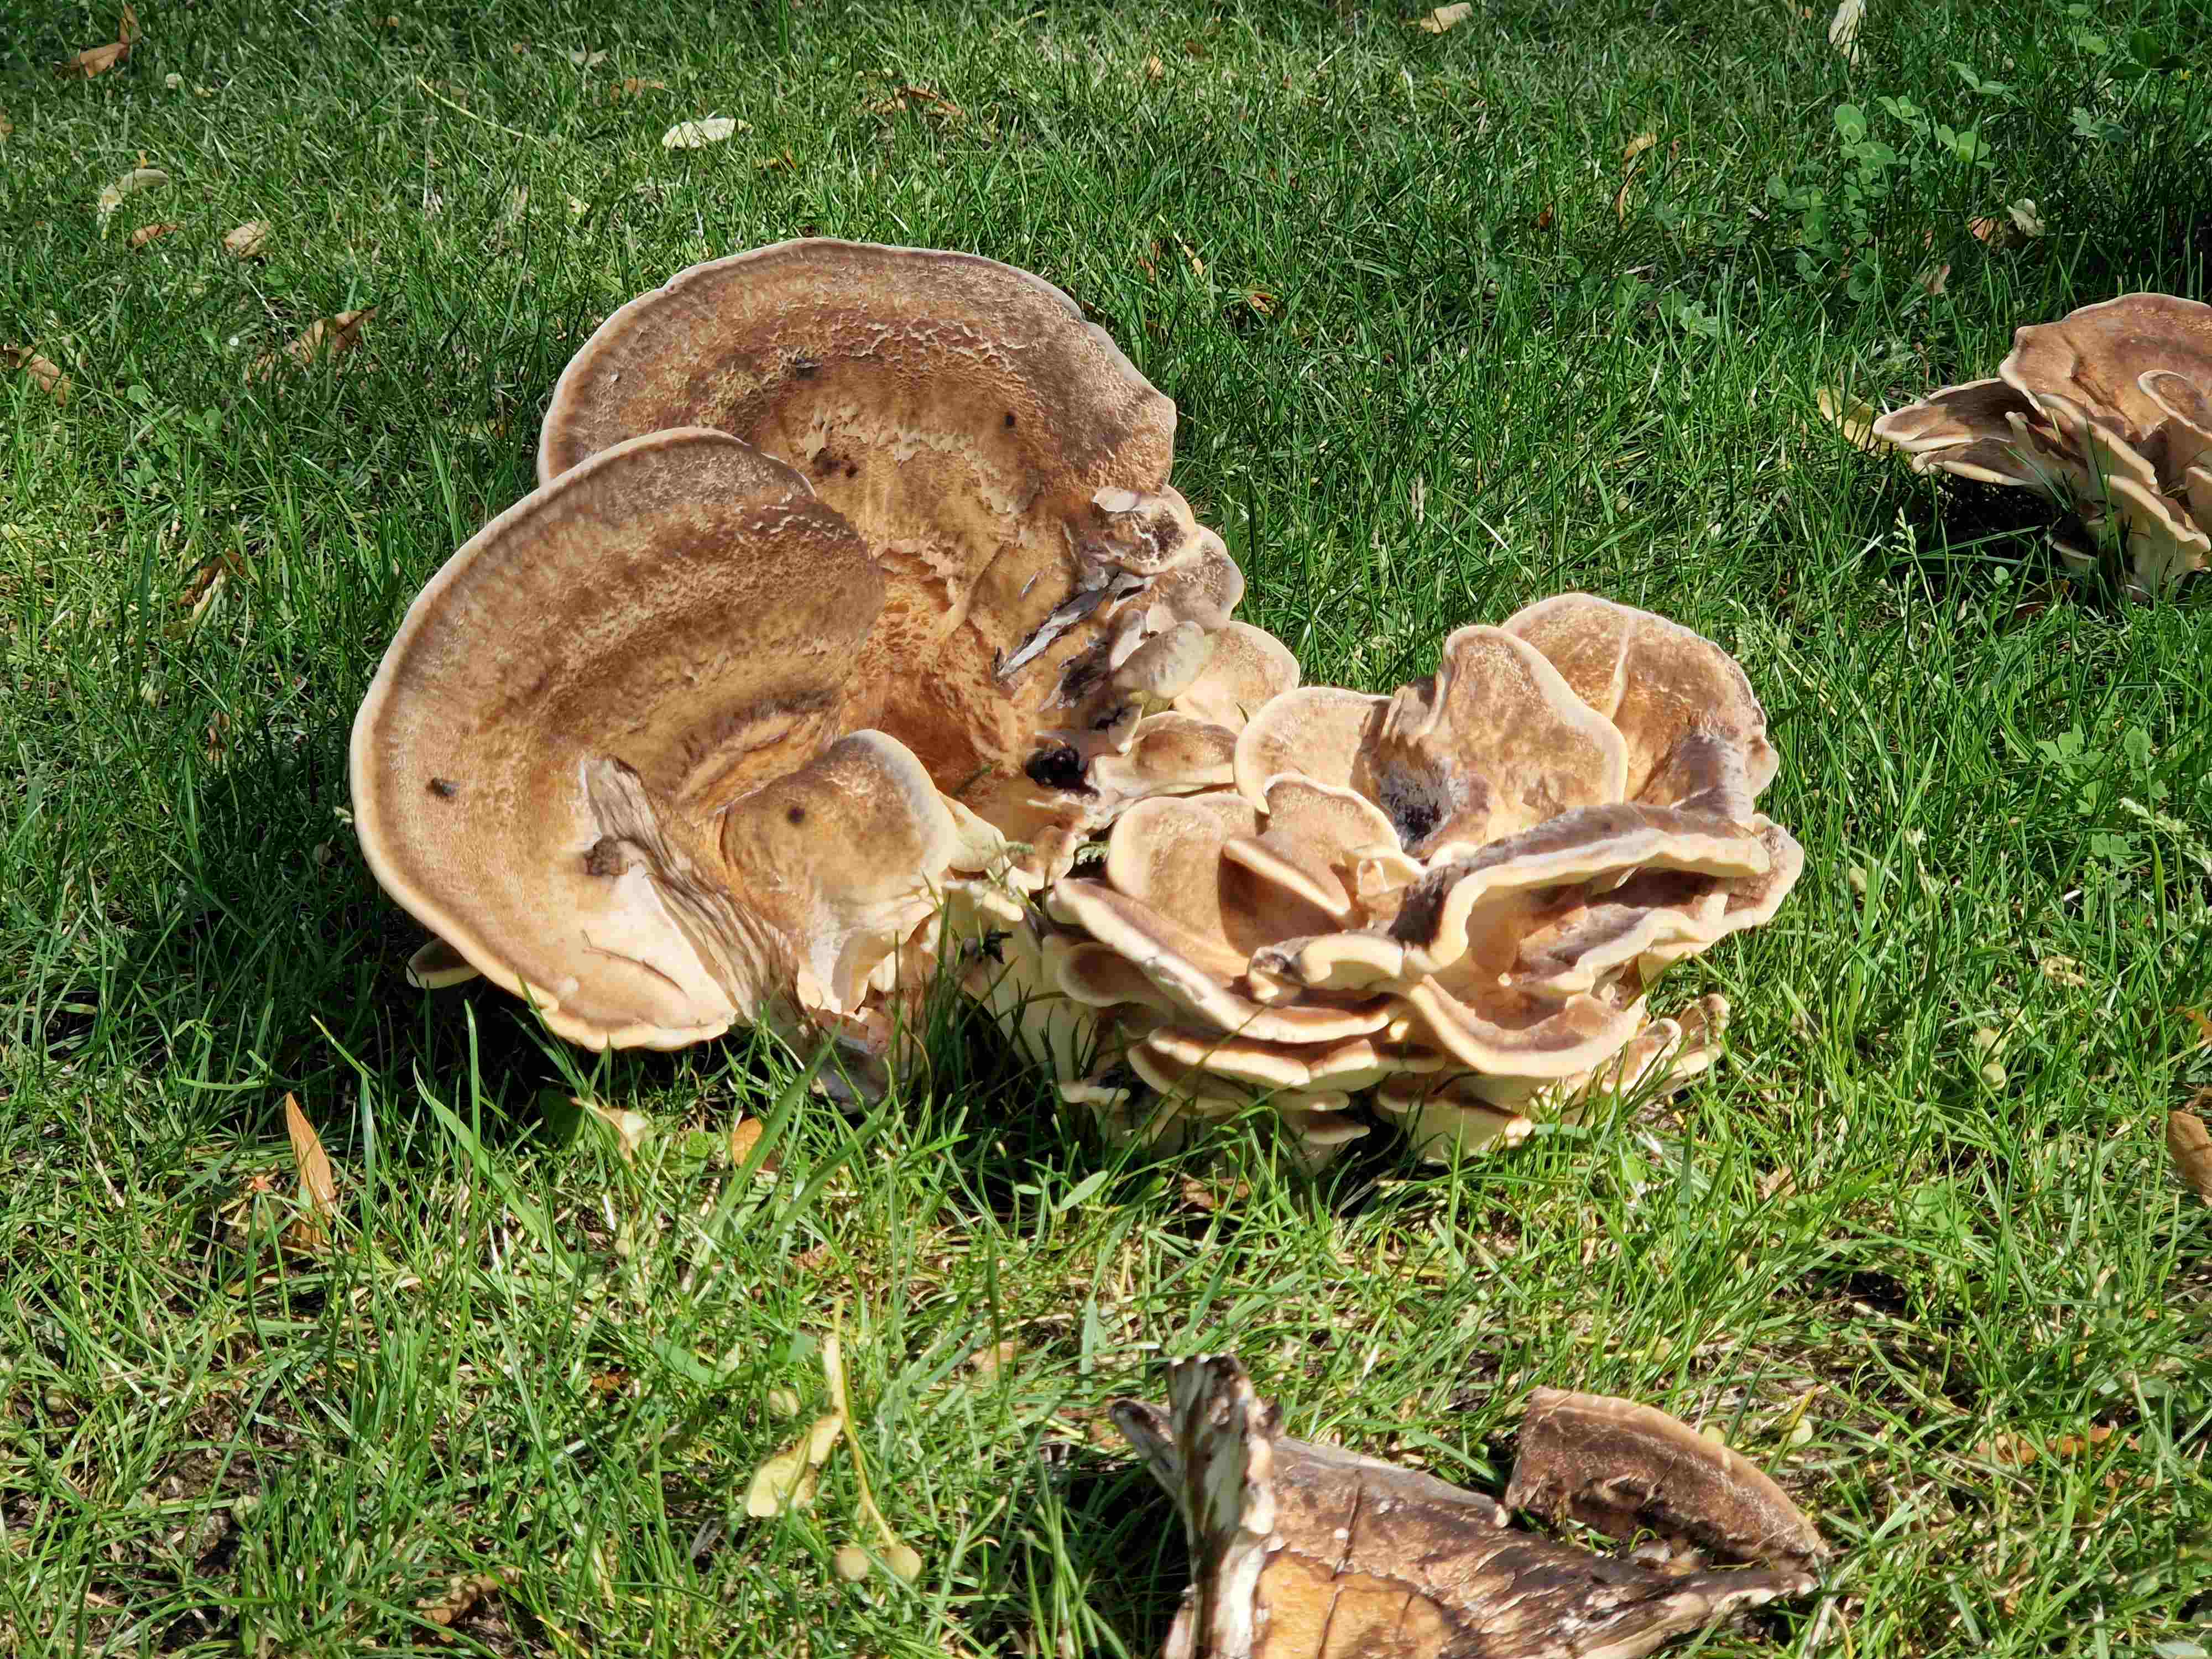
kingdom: Fungi
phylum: Basidiomycota
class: Agaricomycetes
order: Polyporales
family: Meripilaceae
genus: Meripilus
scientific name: Meripilus giganteus
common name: kæmpeporesvamp
